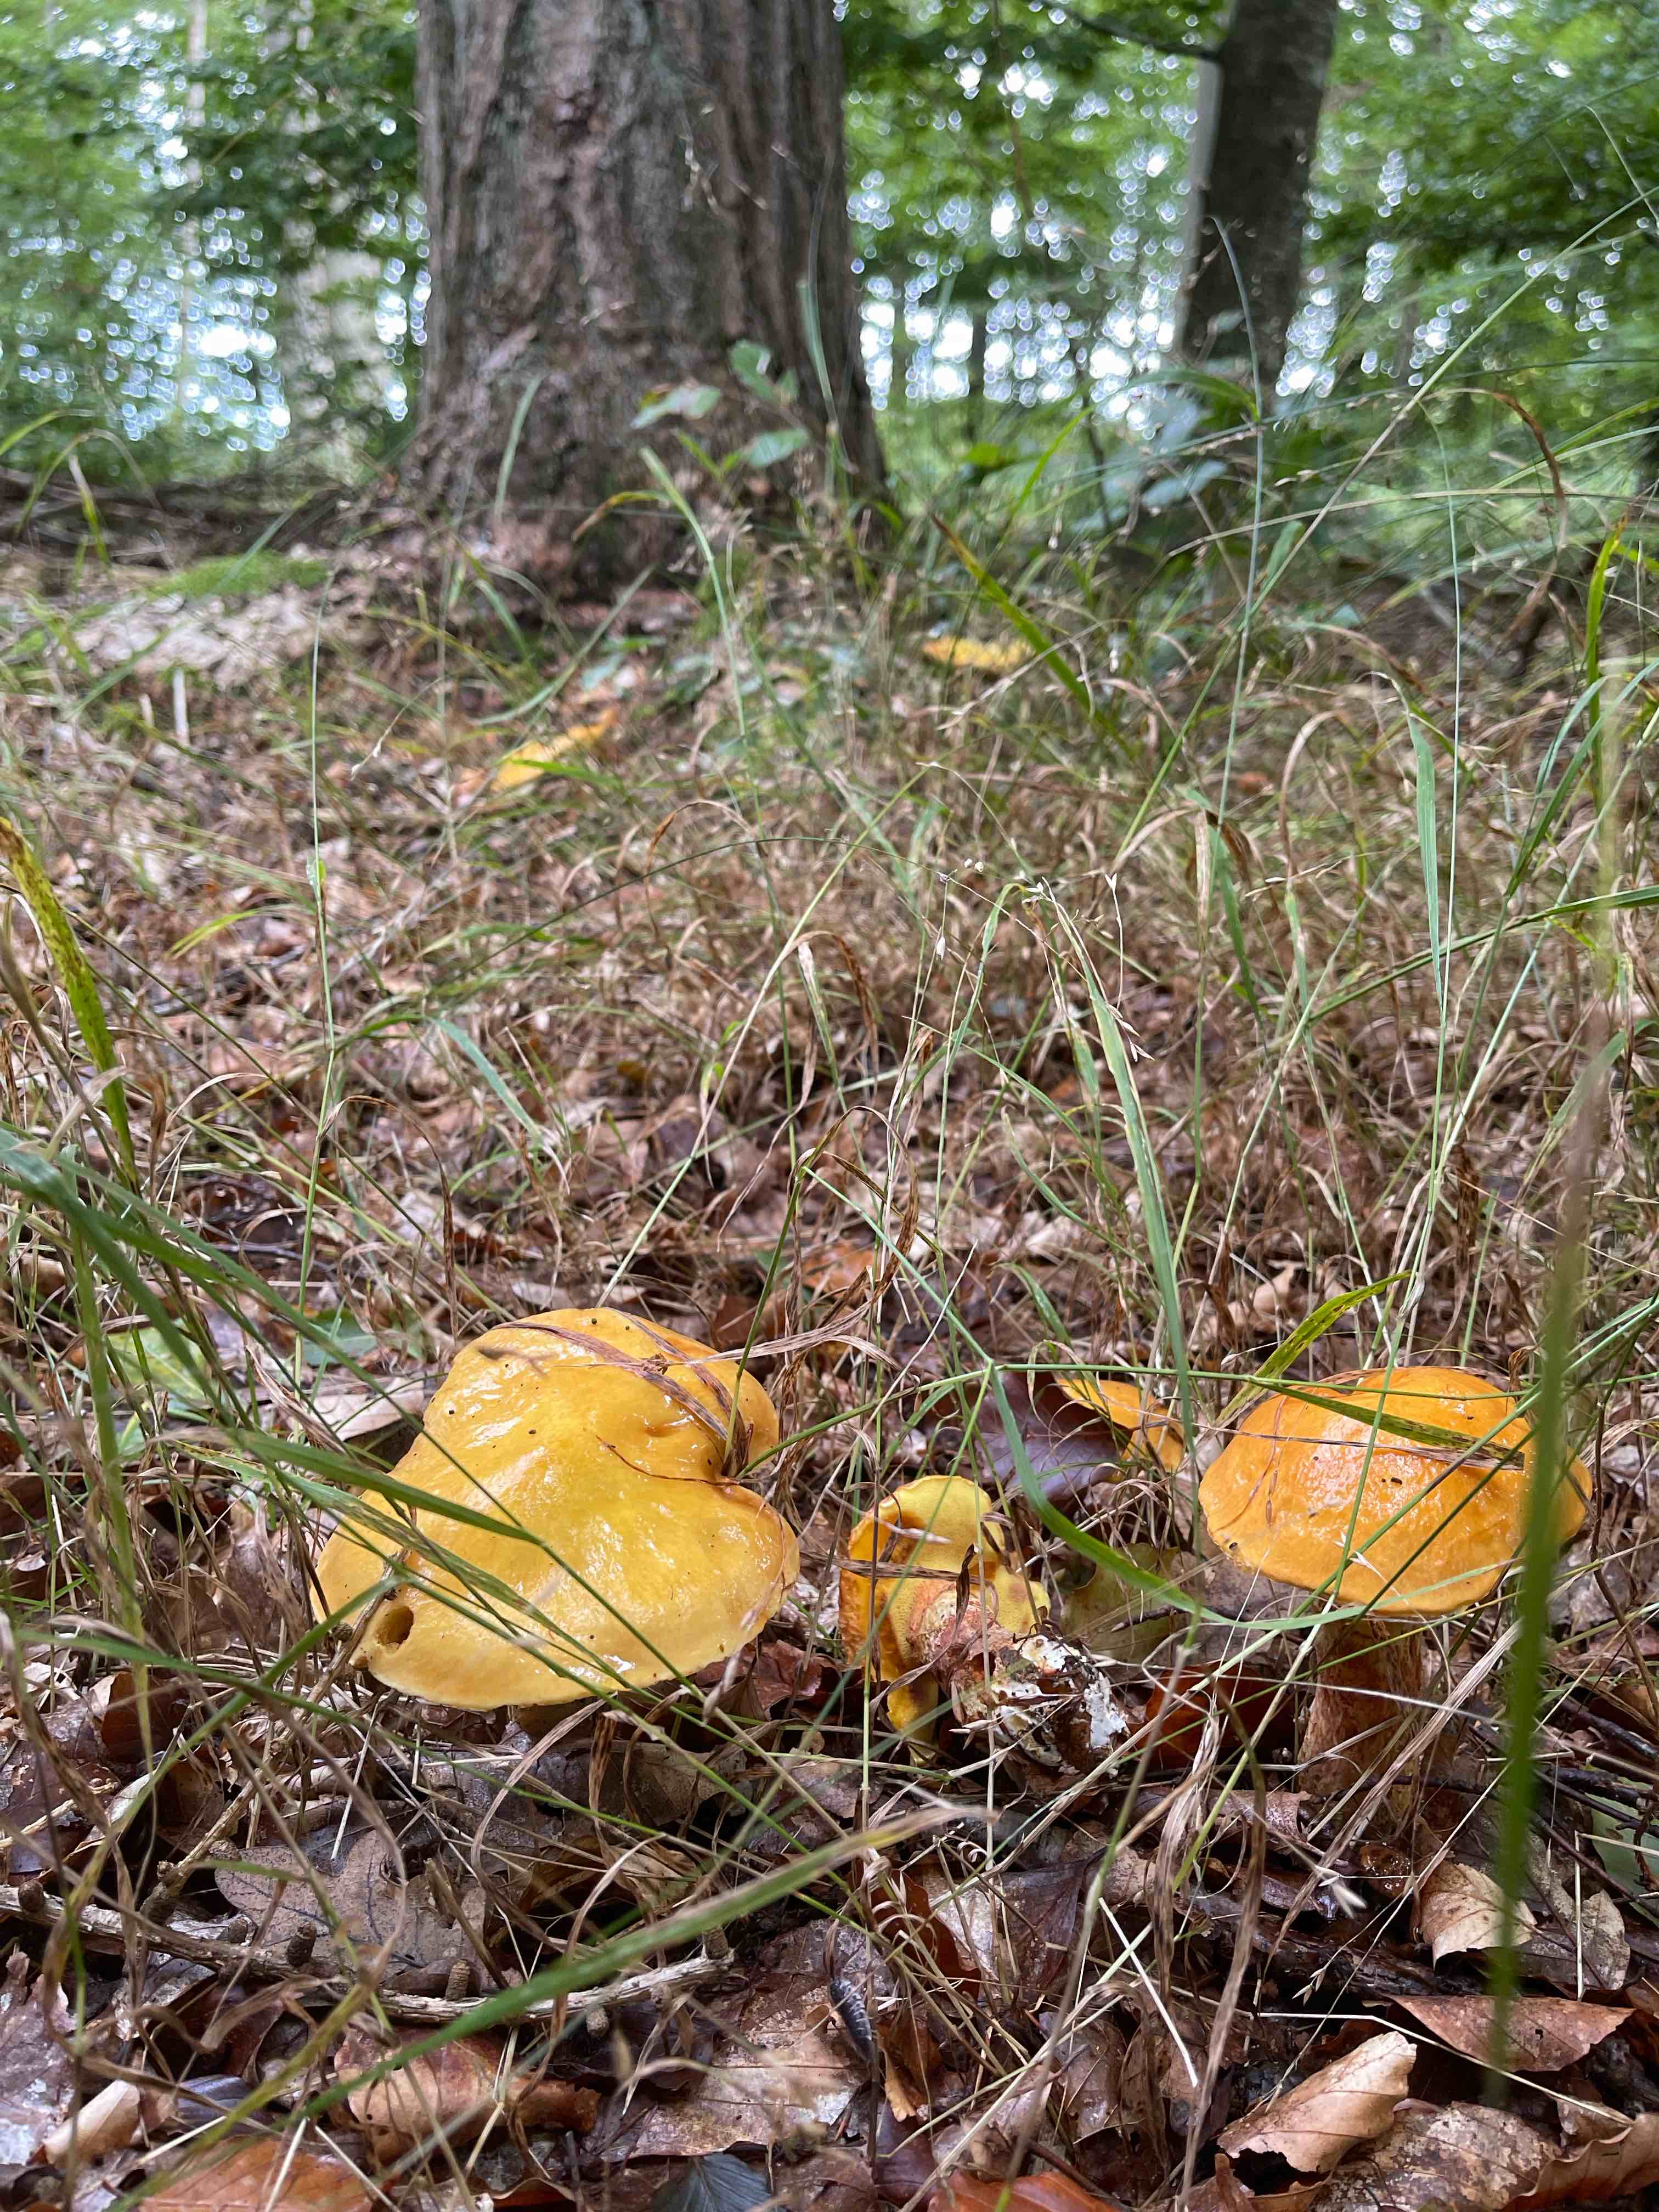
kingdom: Fungi
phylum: Basidiomycota
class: Agaricomycetes
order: Boletales
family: Suillaceae
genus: Suillus
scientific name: Suillus grevillei
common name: lærke-slimrørhat
